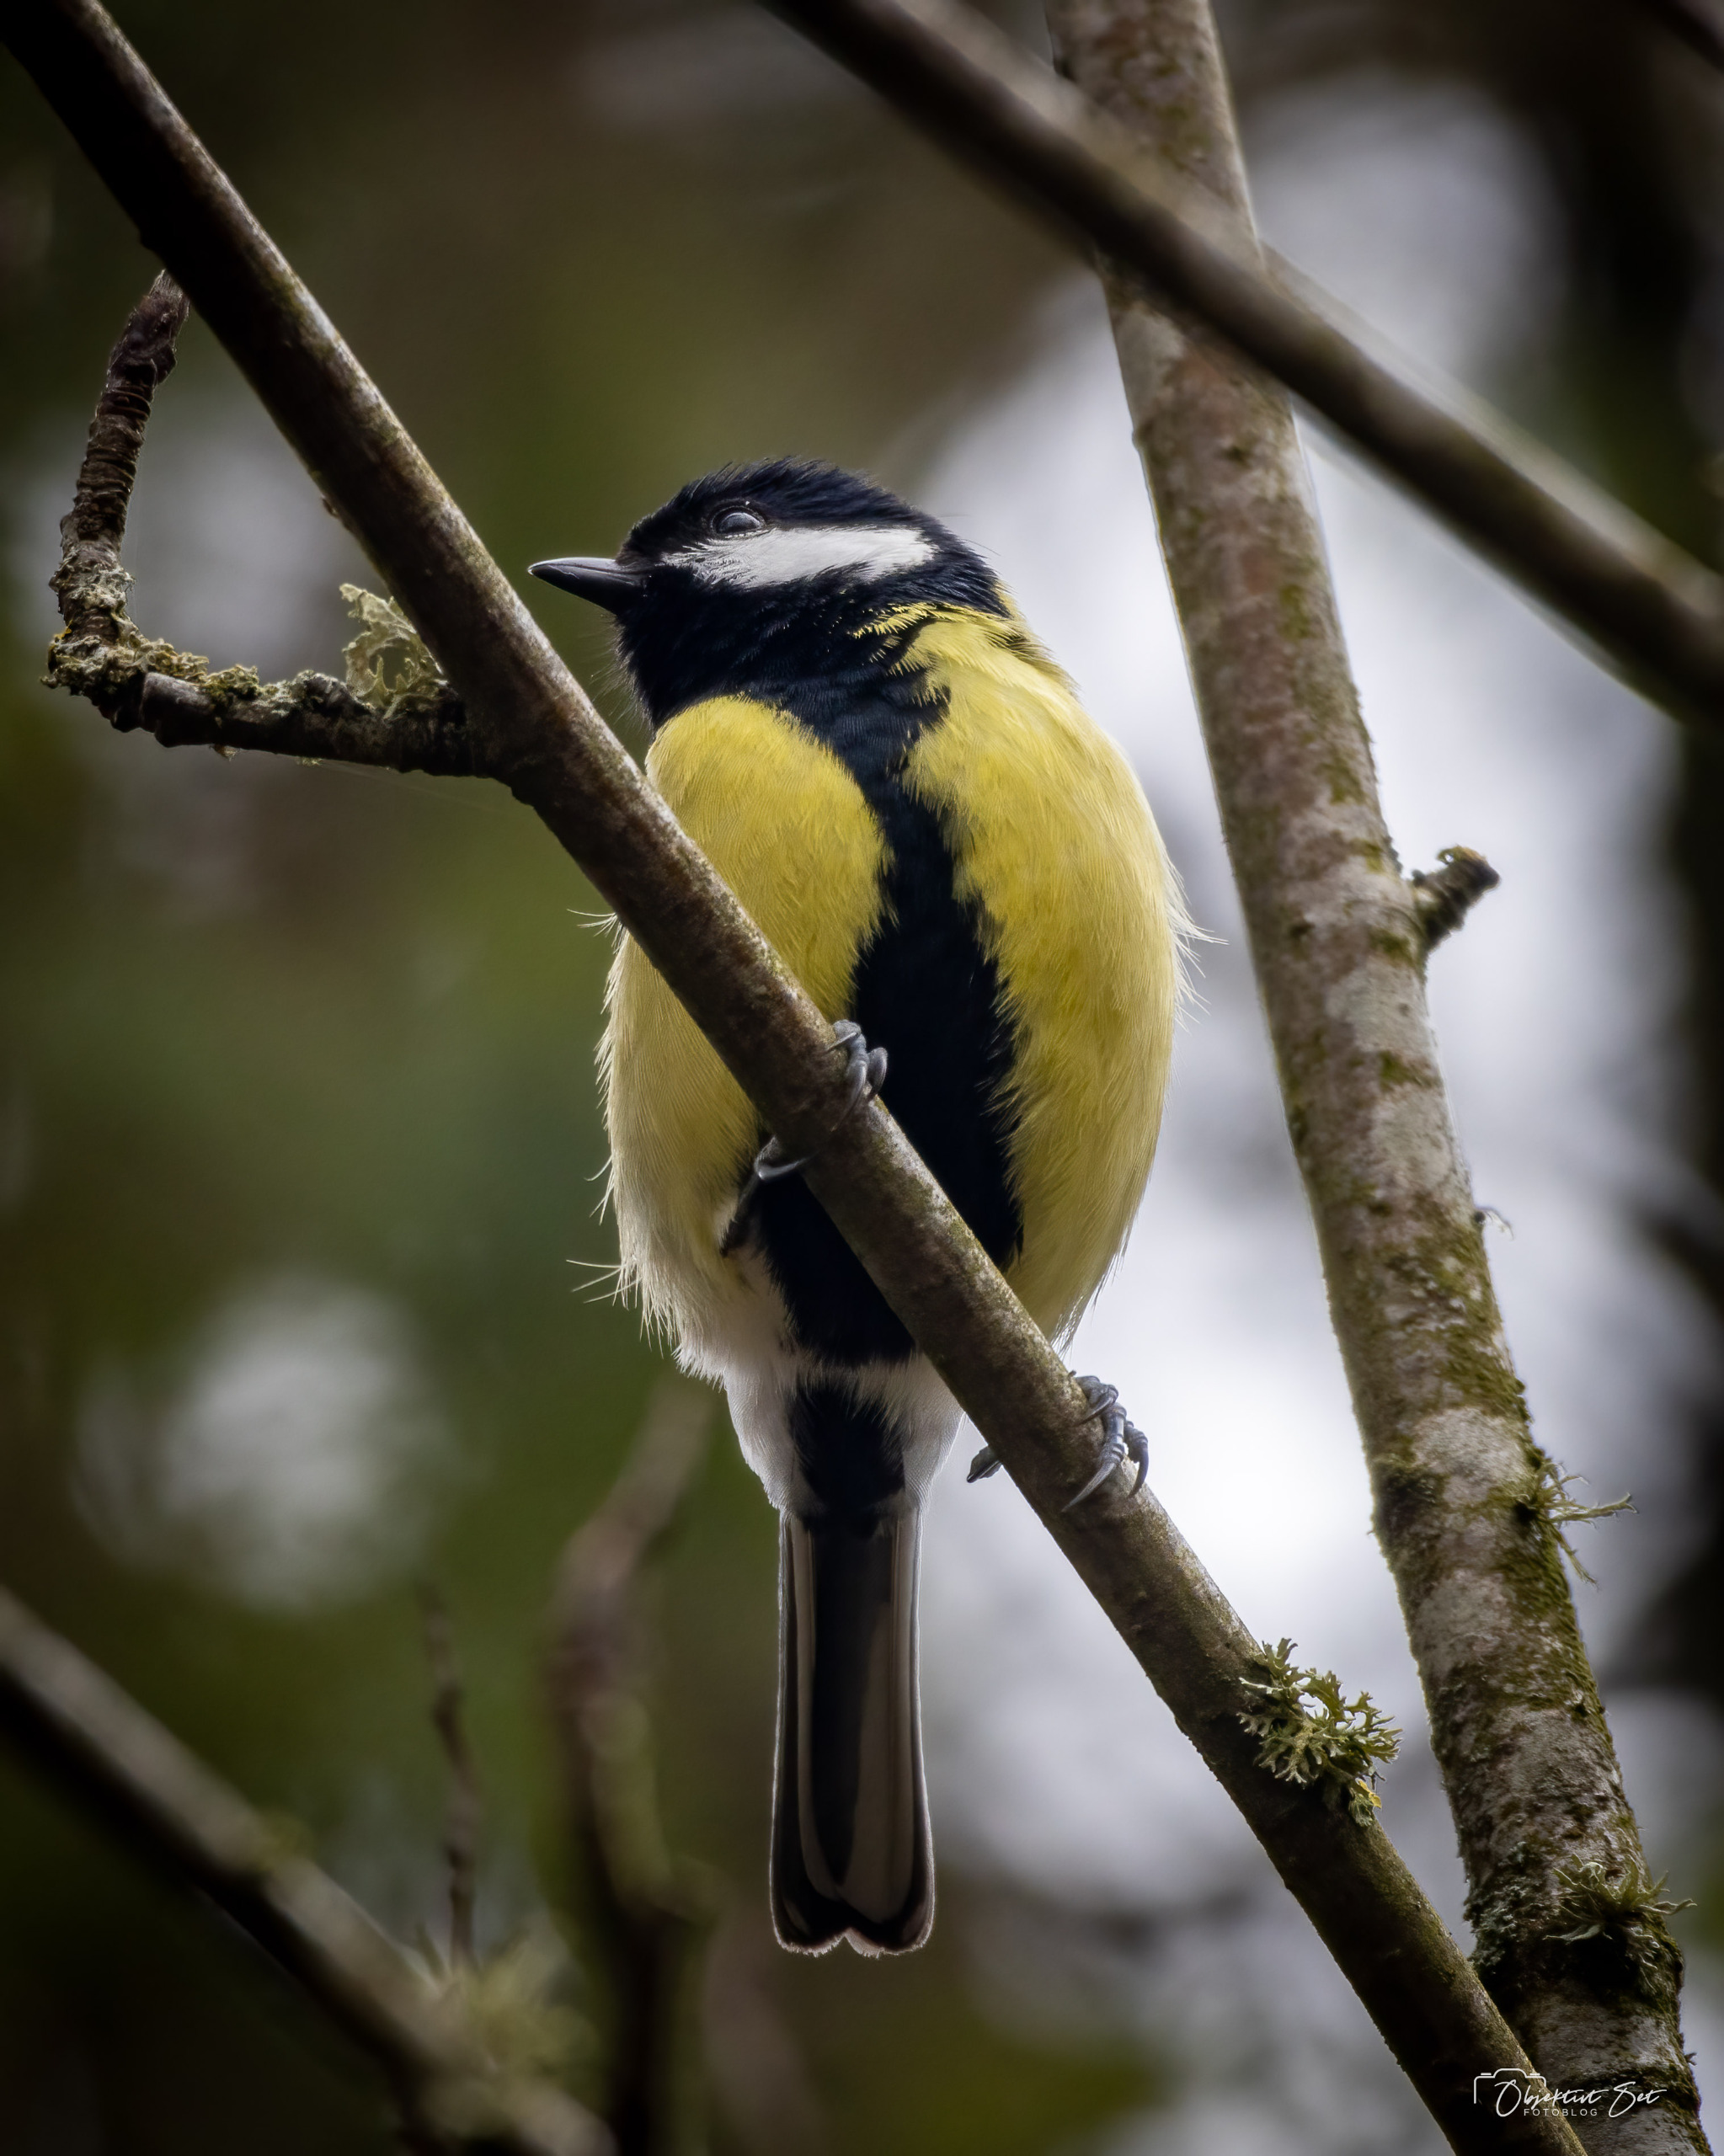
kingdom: Animalia
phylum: Chordata
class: Aves
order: Passeriformes
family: Paridae
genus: Parus
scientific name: Parus major
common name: Musvit
